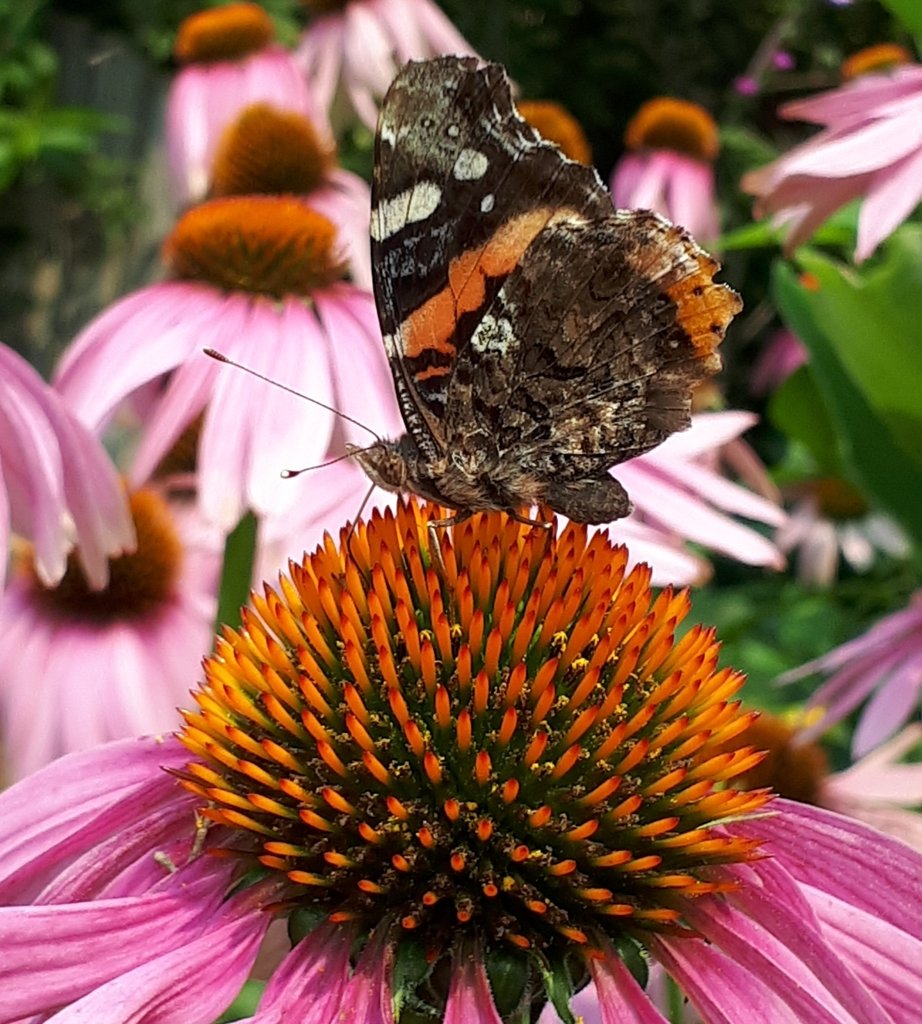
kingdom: Animalia
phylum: Arthropoda
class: Insecta
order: Lepidoptera
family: Nymphalidae
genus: Vanessa
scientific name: Vanessa atalanta
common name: Red Admiral
